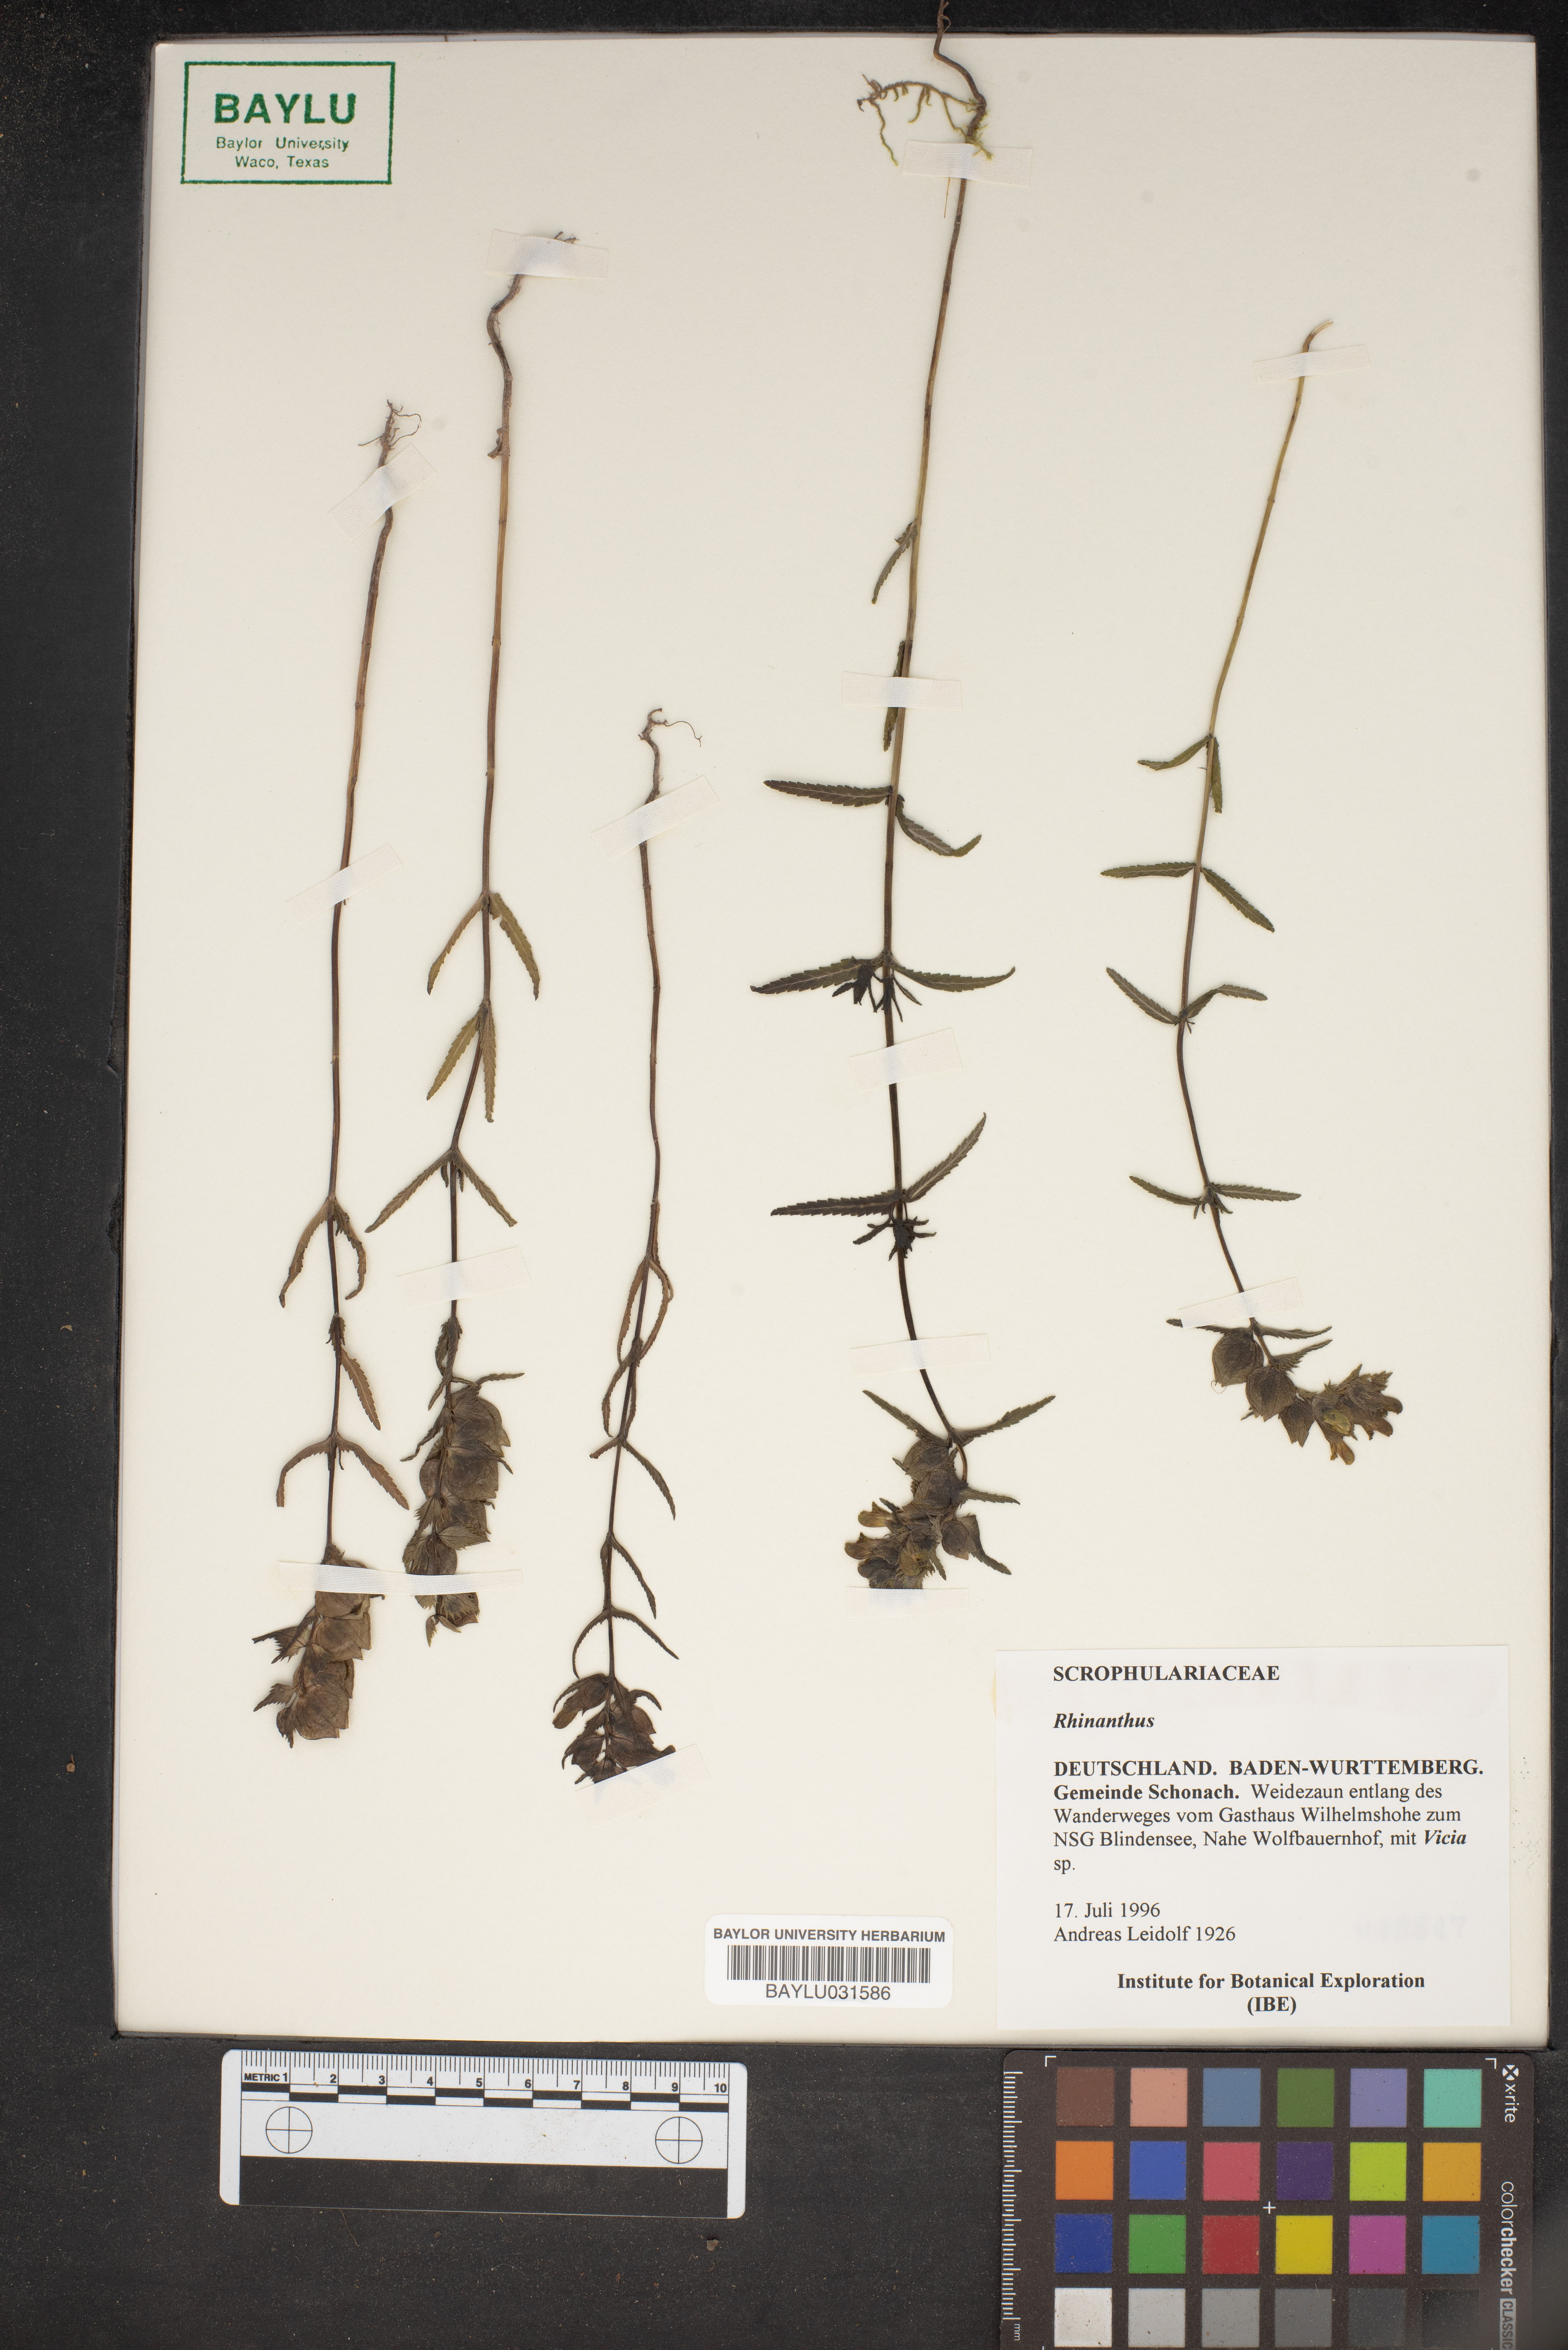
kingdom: Plantae
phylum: Tracheophyta
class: Magnoliopsida
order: Lamiales
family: Orobanchaceae
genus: Rhinanthus
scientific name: Rhinanthus
